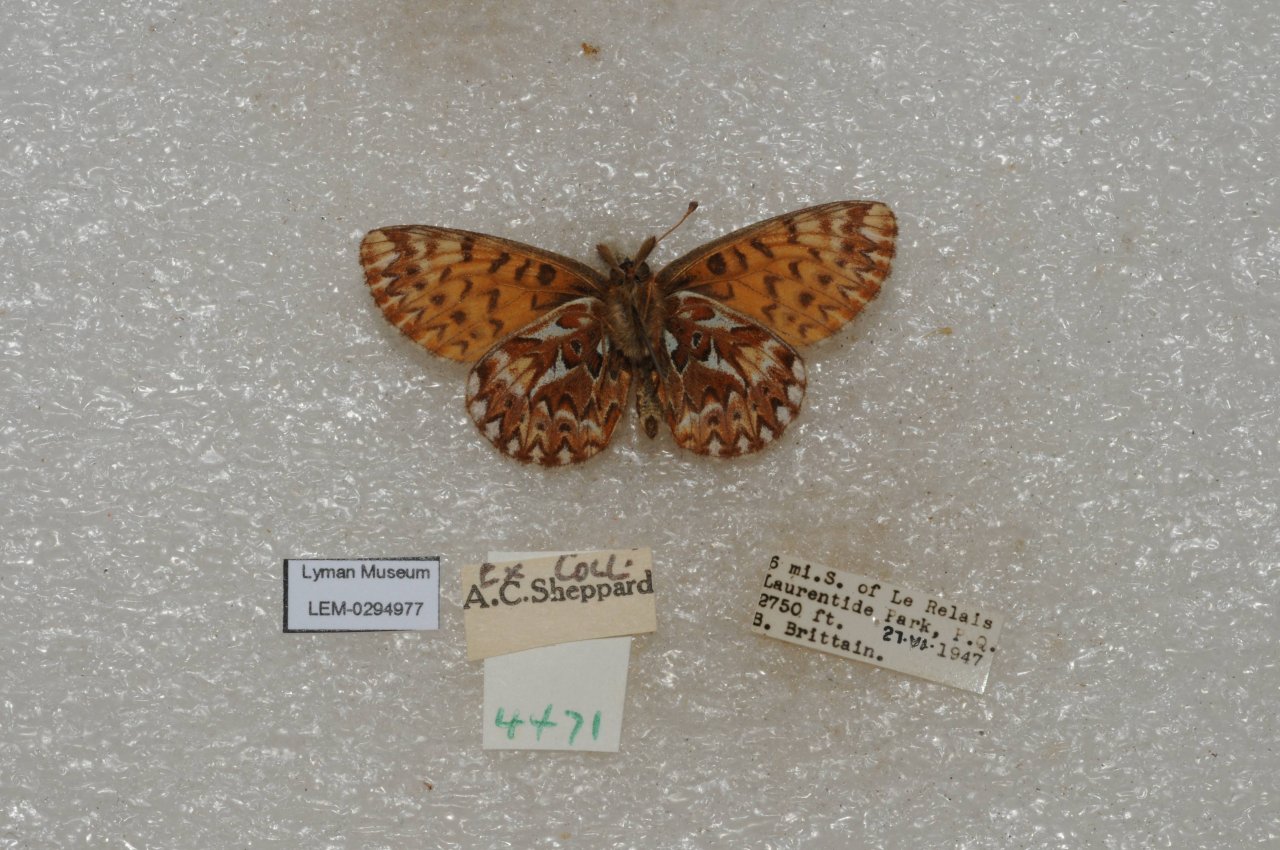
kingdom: Animalia
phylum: Arthropoda
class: Insecta
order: Lepidoptera
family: Nymphalidae
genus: Boloria
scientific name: Boloria selene
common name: Silver-bordered Fritillary
